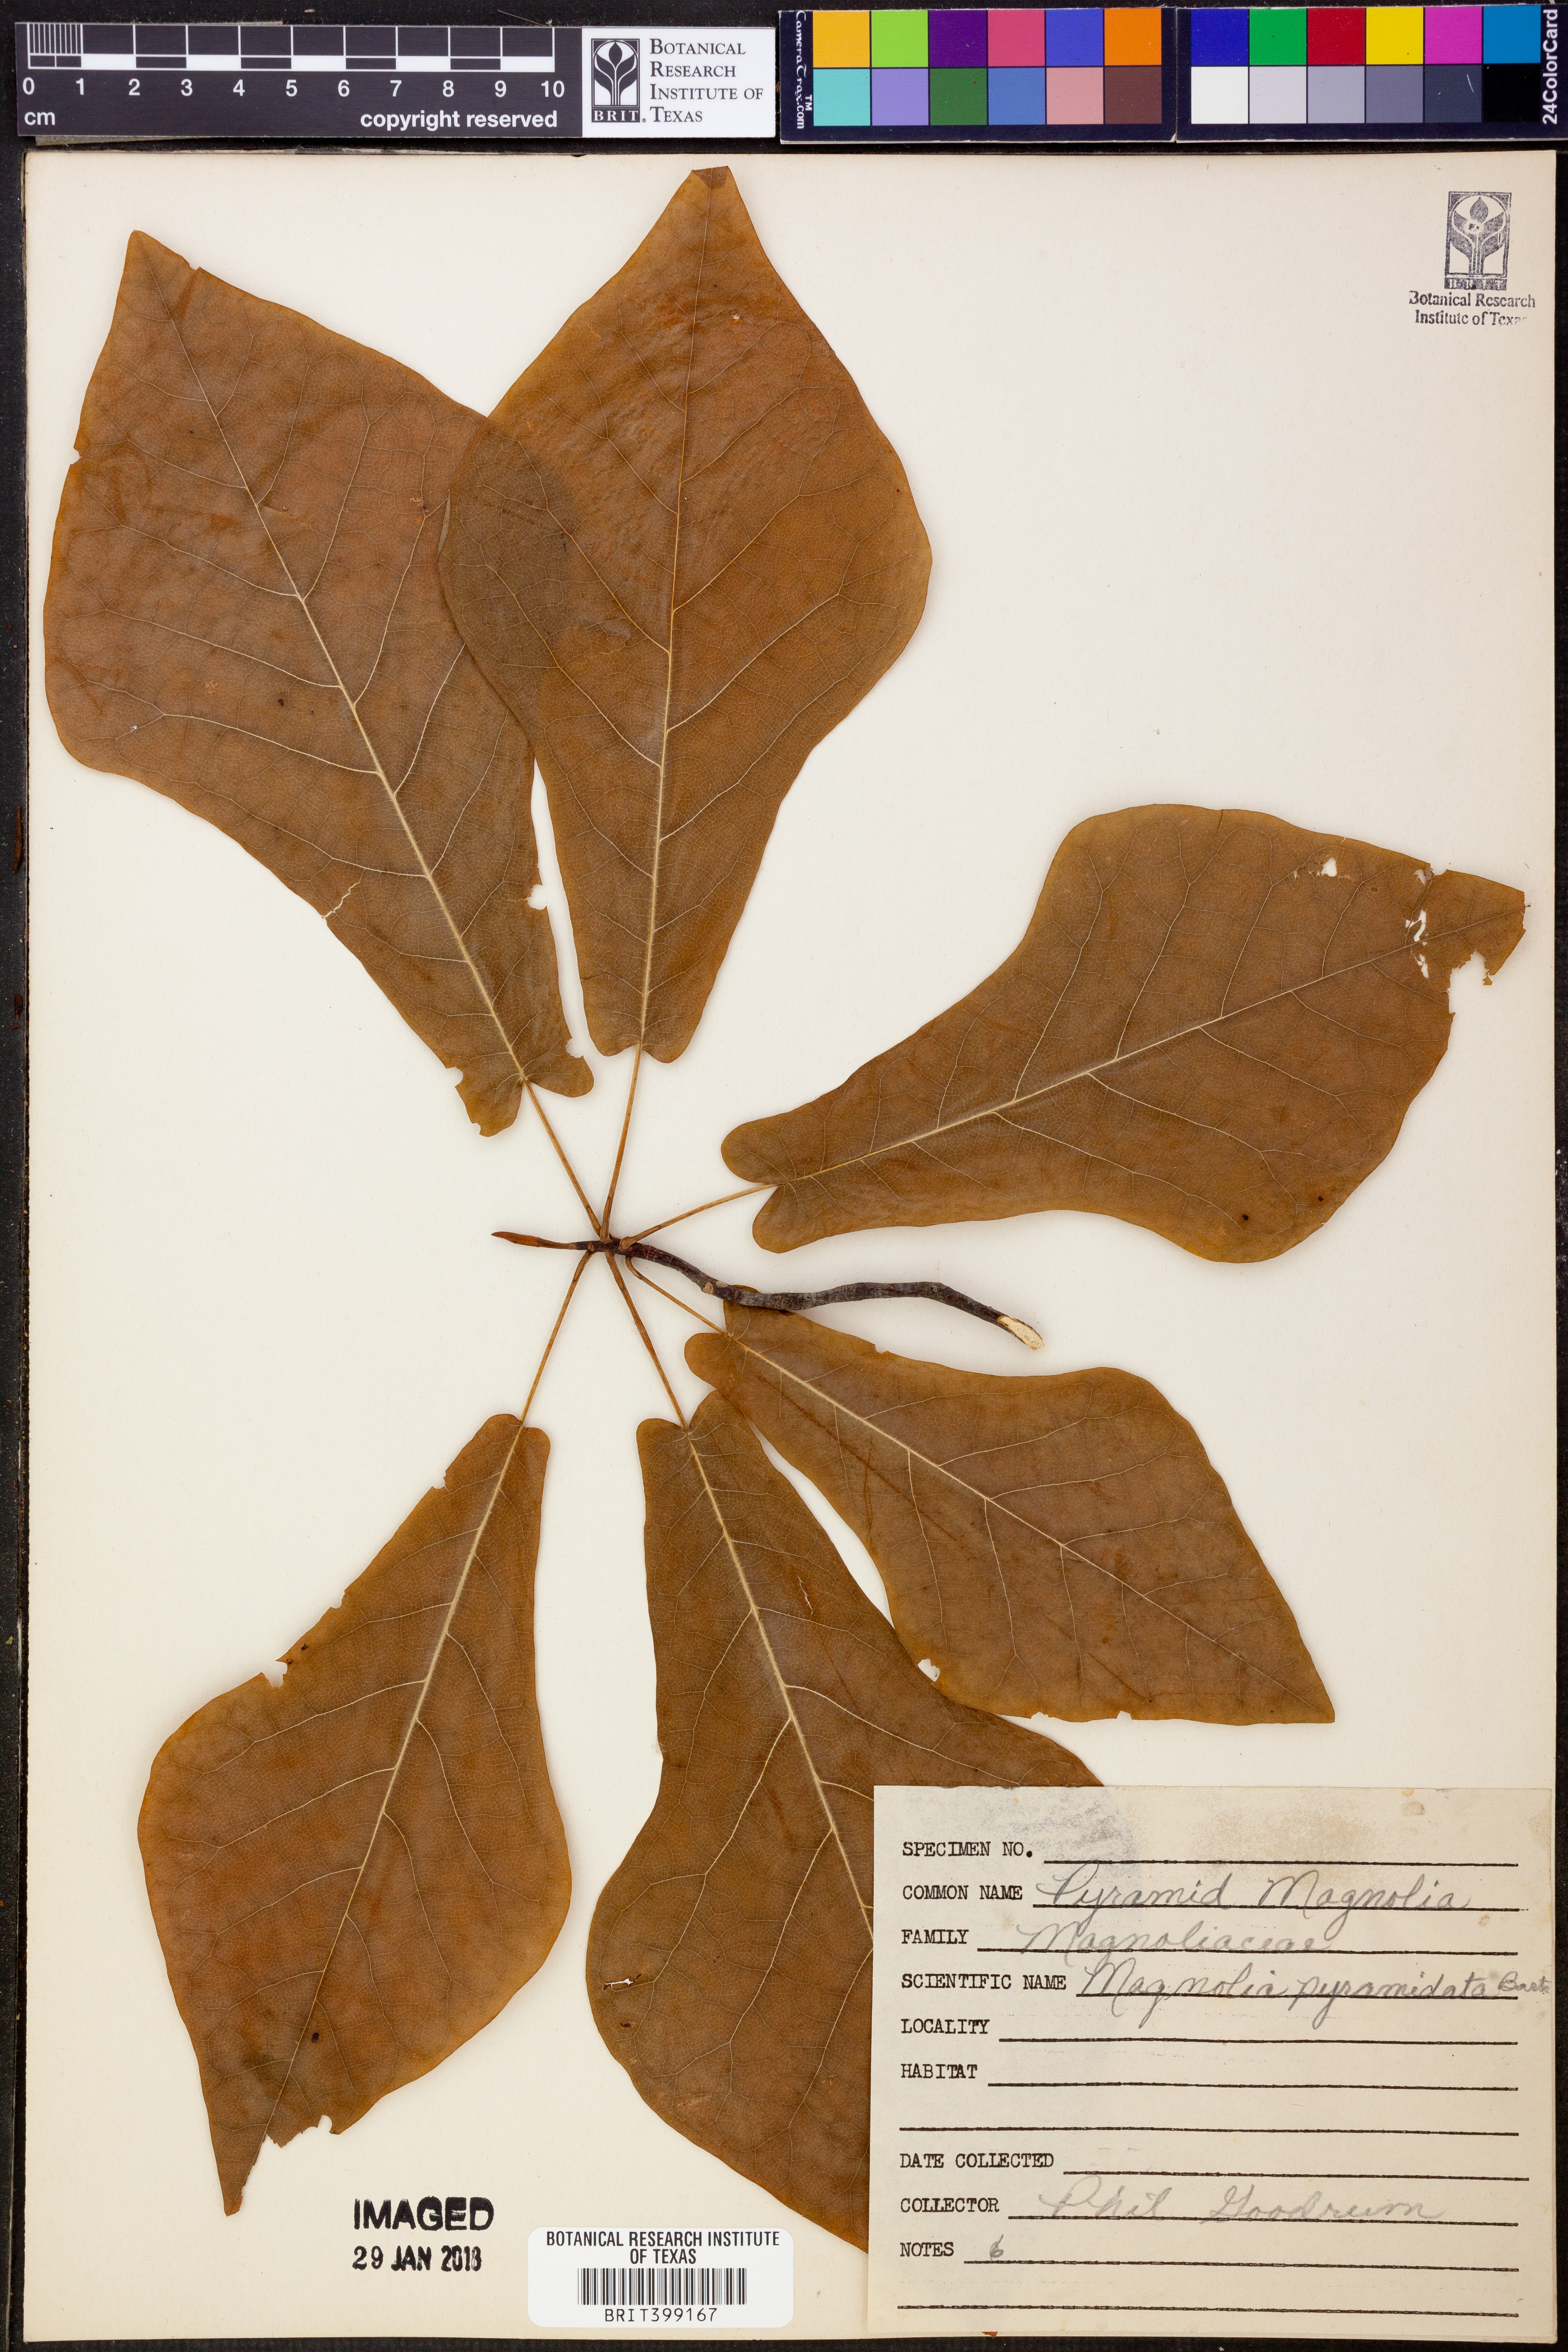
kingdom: Plantae
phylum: Tracheophyta
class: Magnoliopsida
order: Magnoliales
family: Magnoliaceae
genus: Magnolia
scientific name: Magnolia fraseri
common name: Fraser's magnolia
